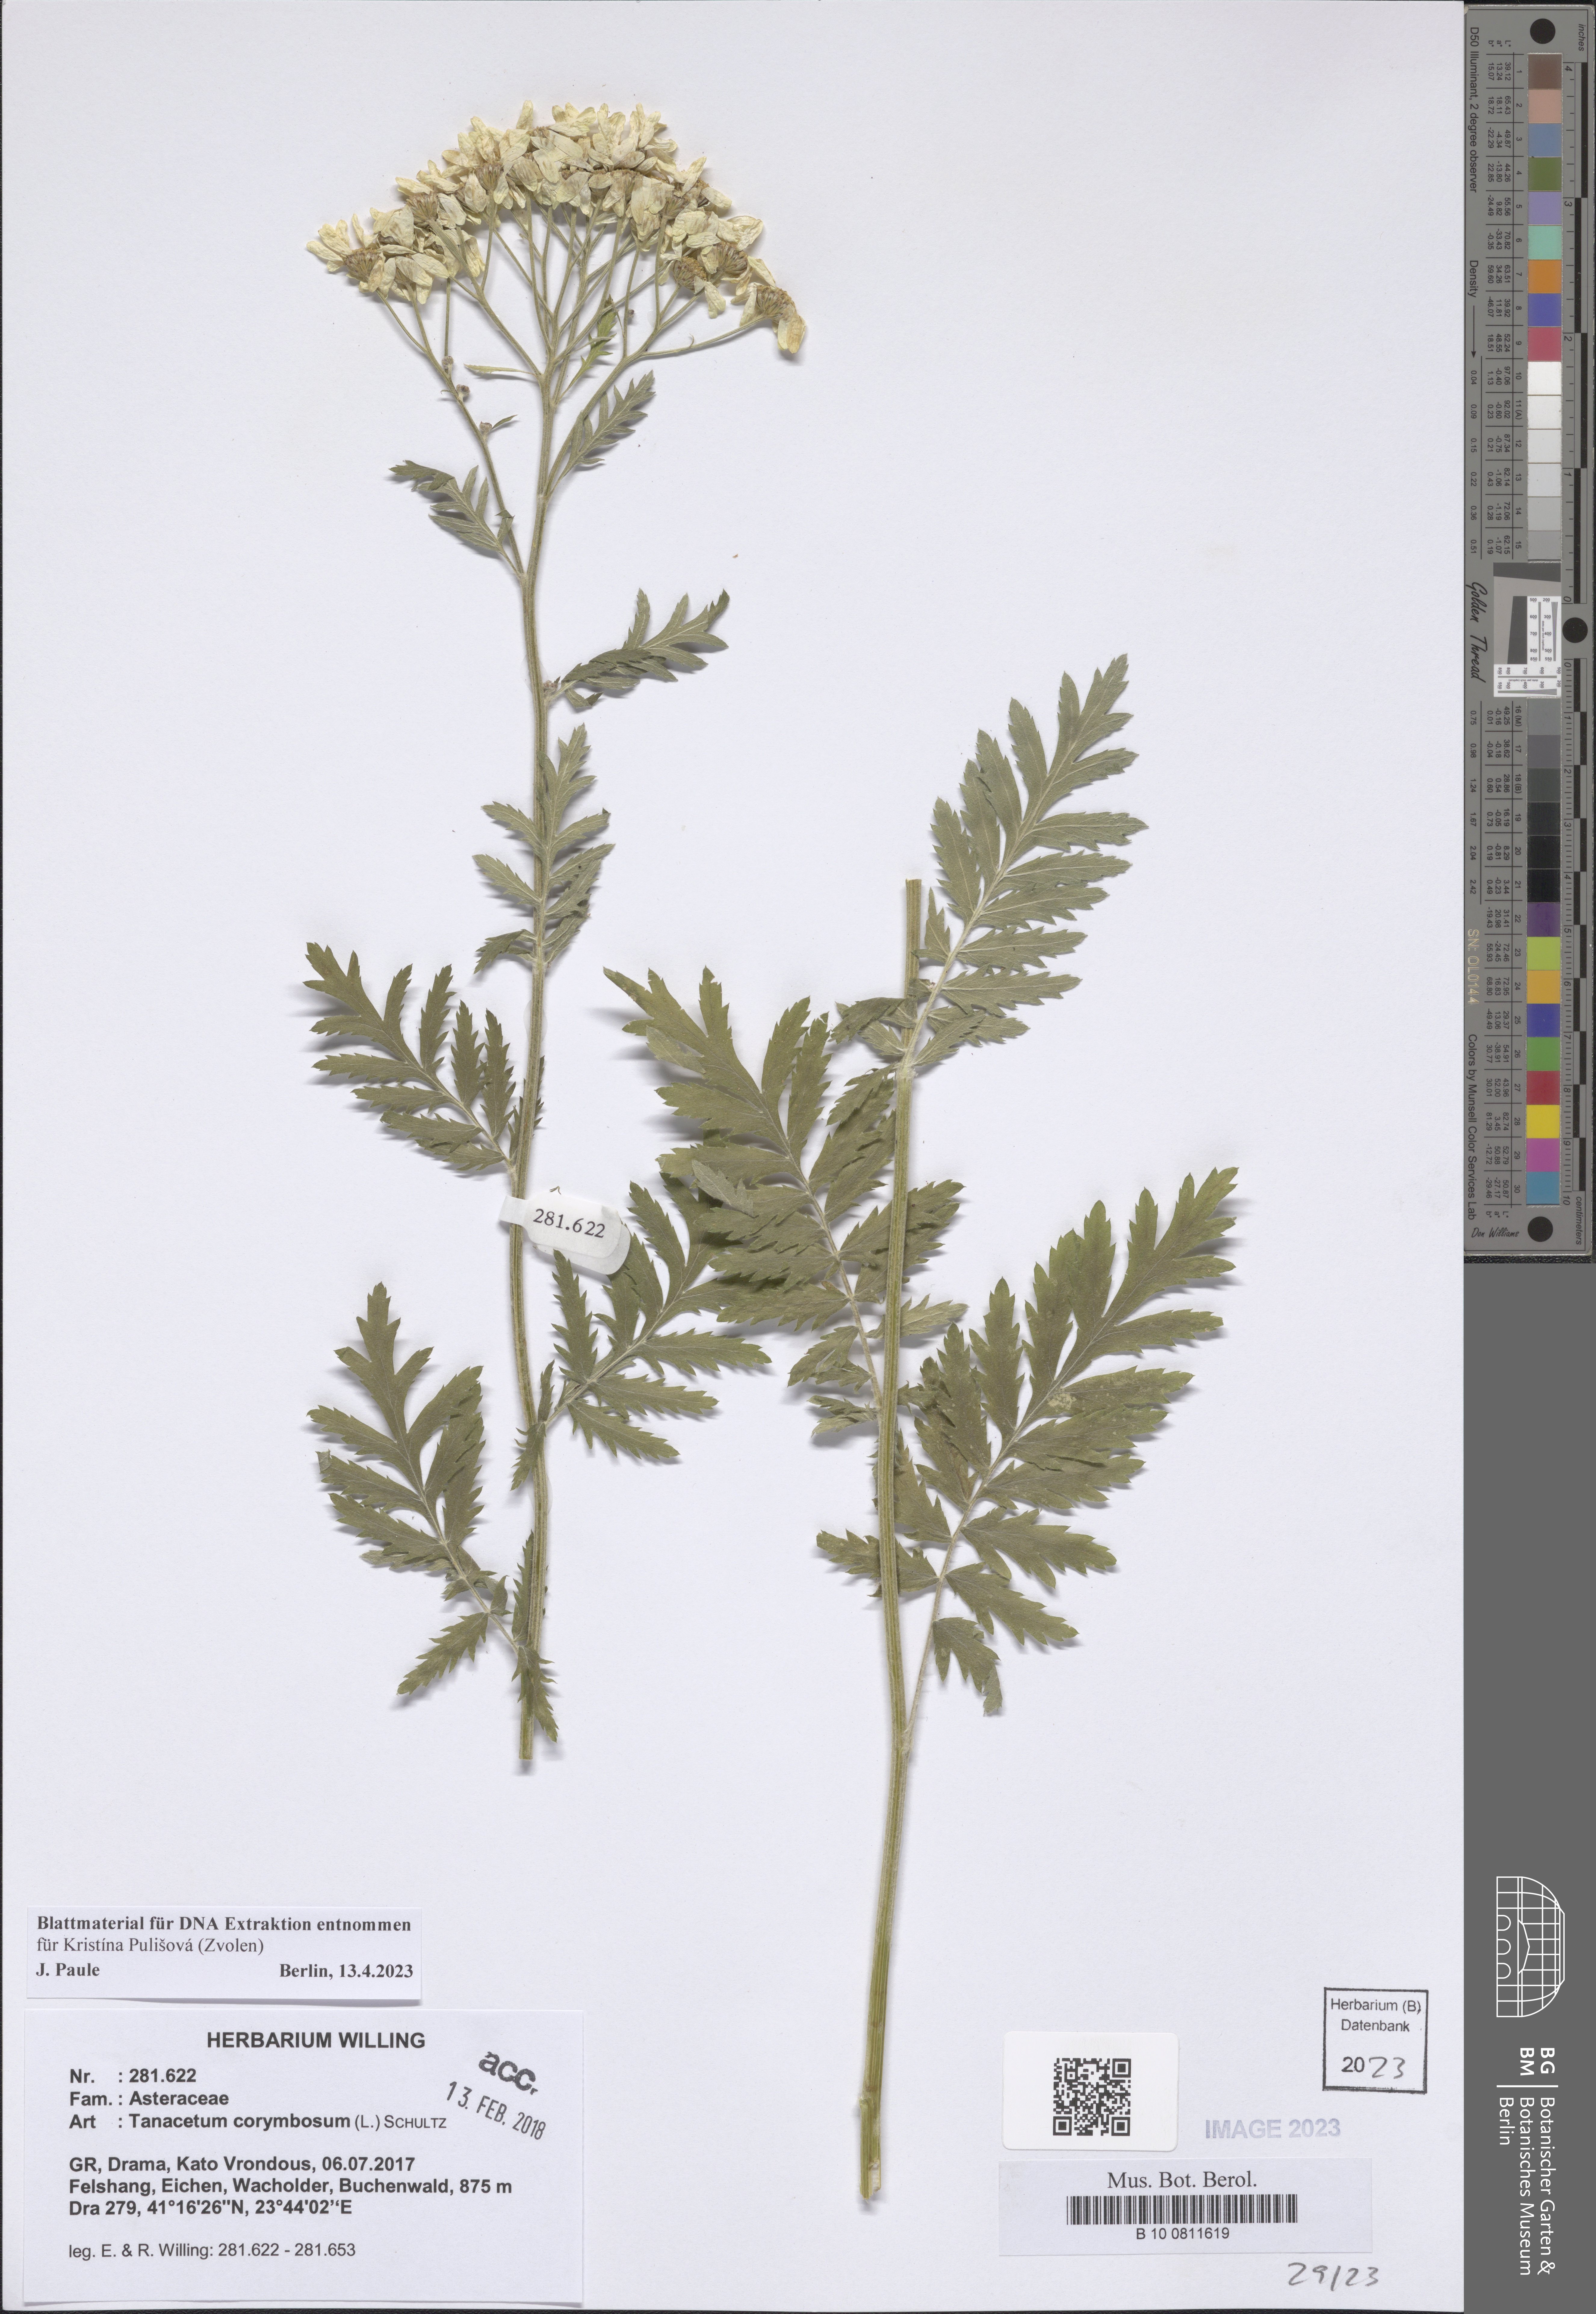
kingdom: Plantae
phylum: Tracheophyta
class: Magnoliopsida
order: Asterales
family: Asteraceae
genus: Tanacetum
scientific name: Tanacetum corymbosum
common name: Scentless feverfew
